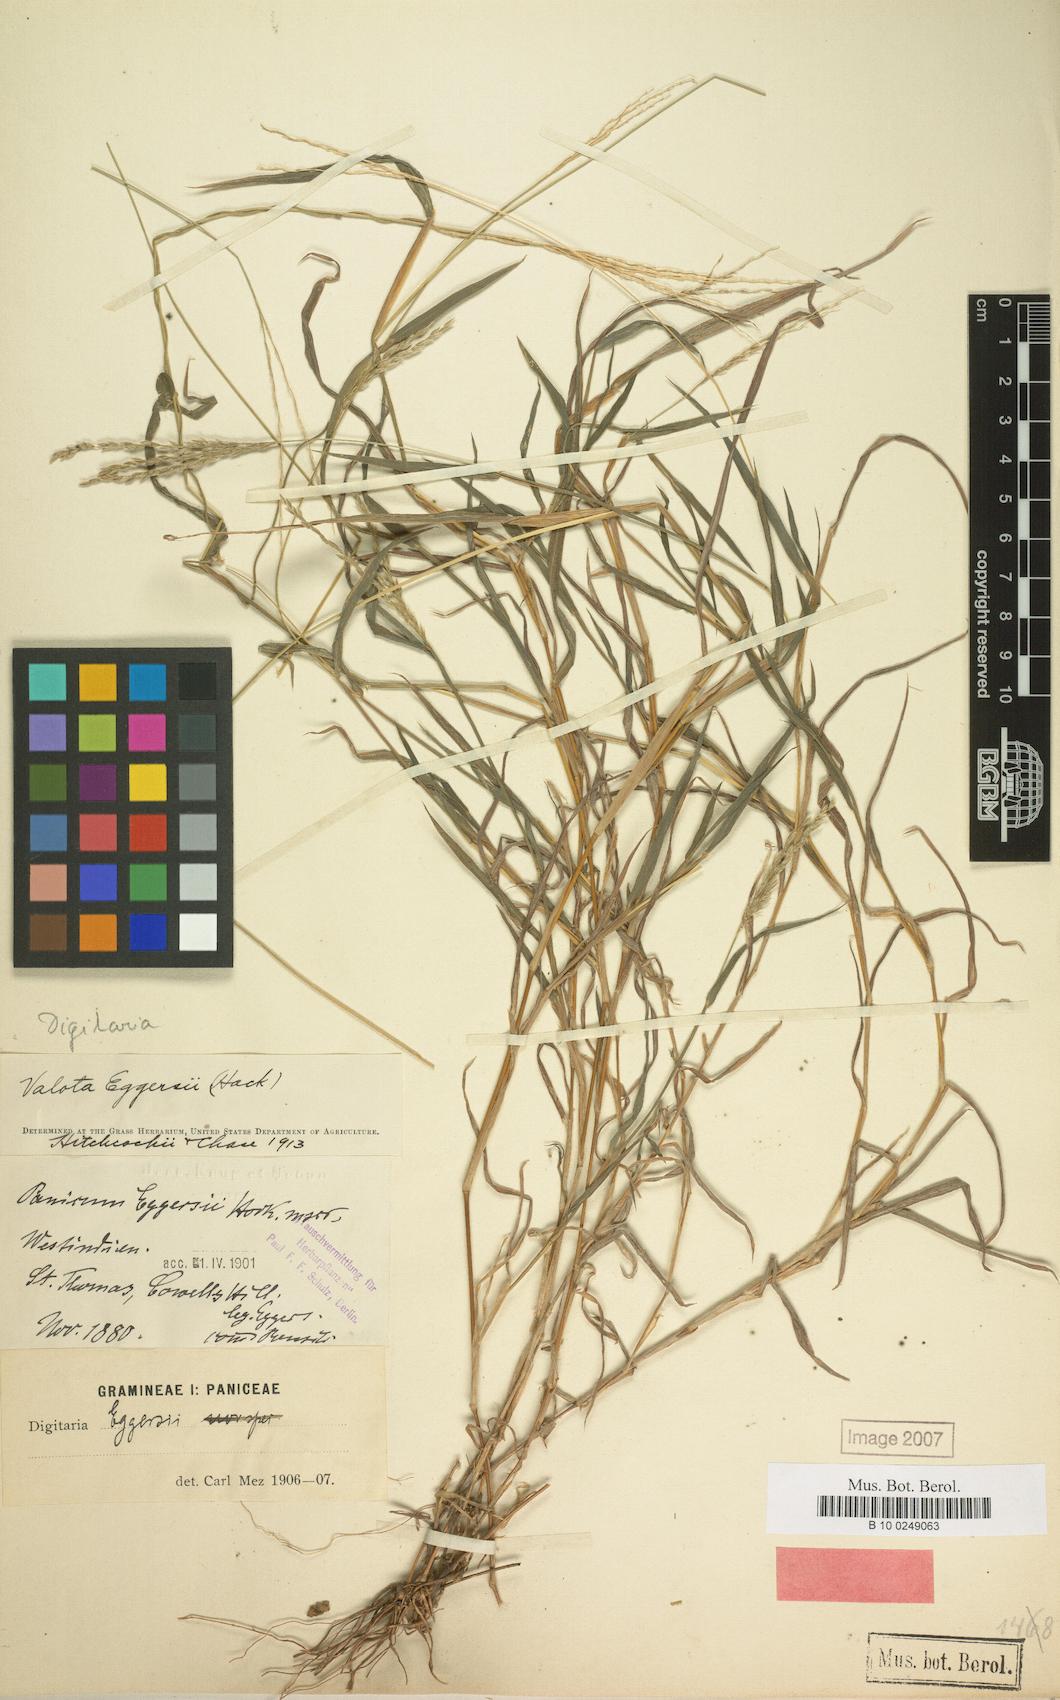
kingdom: Plantae
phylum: Tracheophyta
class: Liliopsida
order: Poales
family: Poaceae
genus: Digitaria
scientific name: Digitaria eggersii
